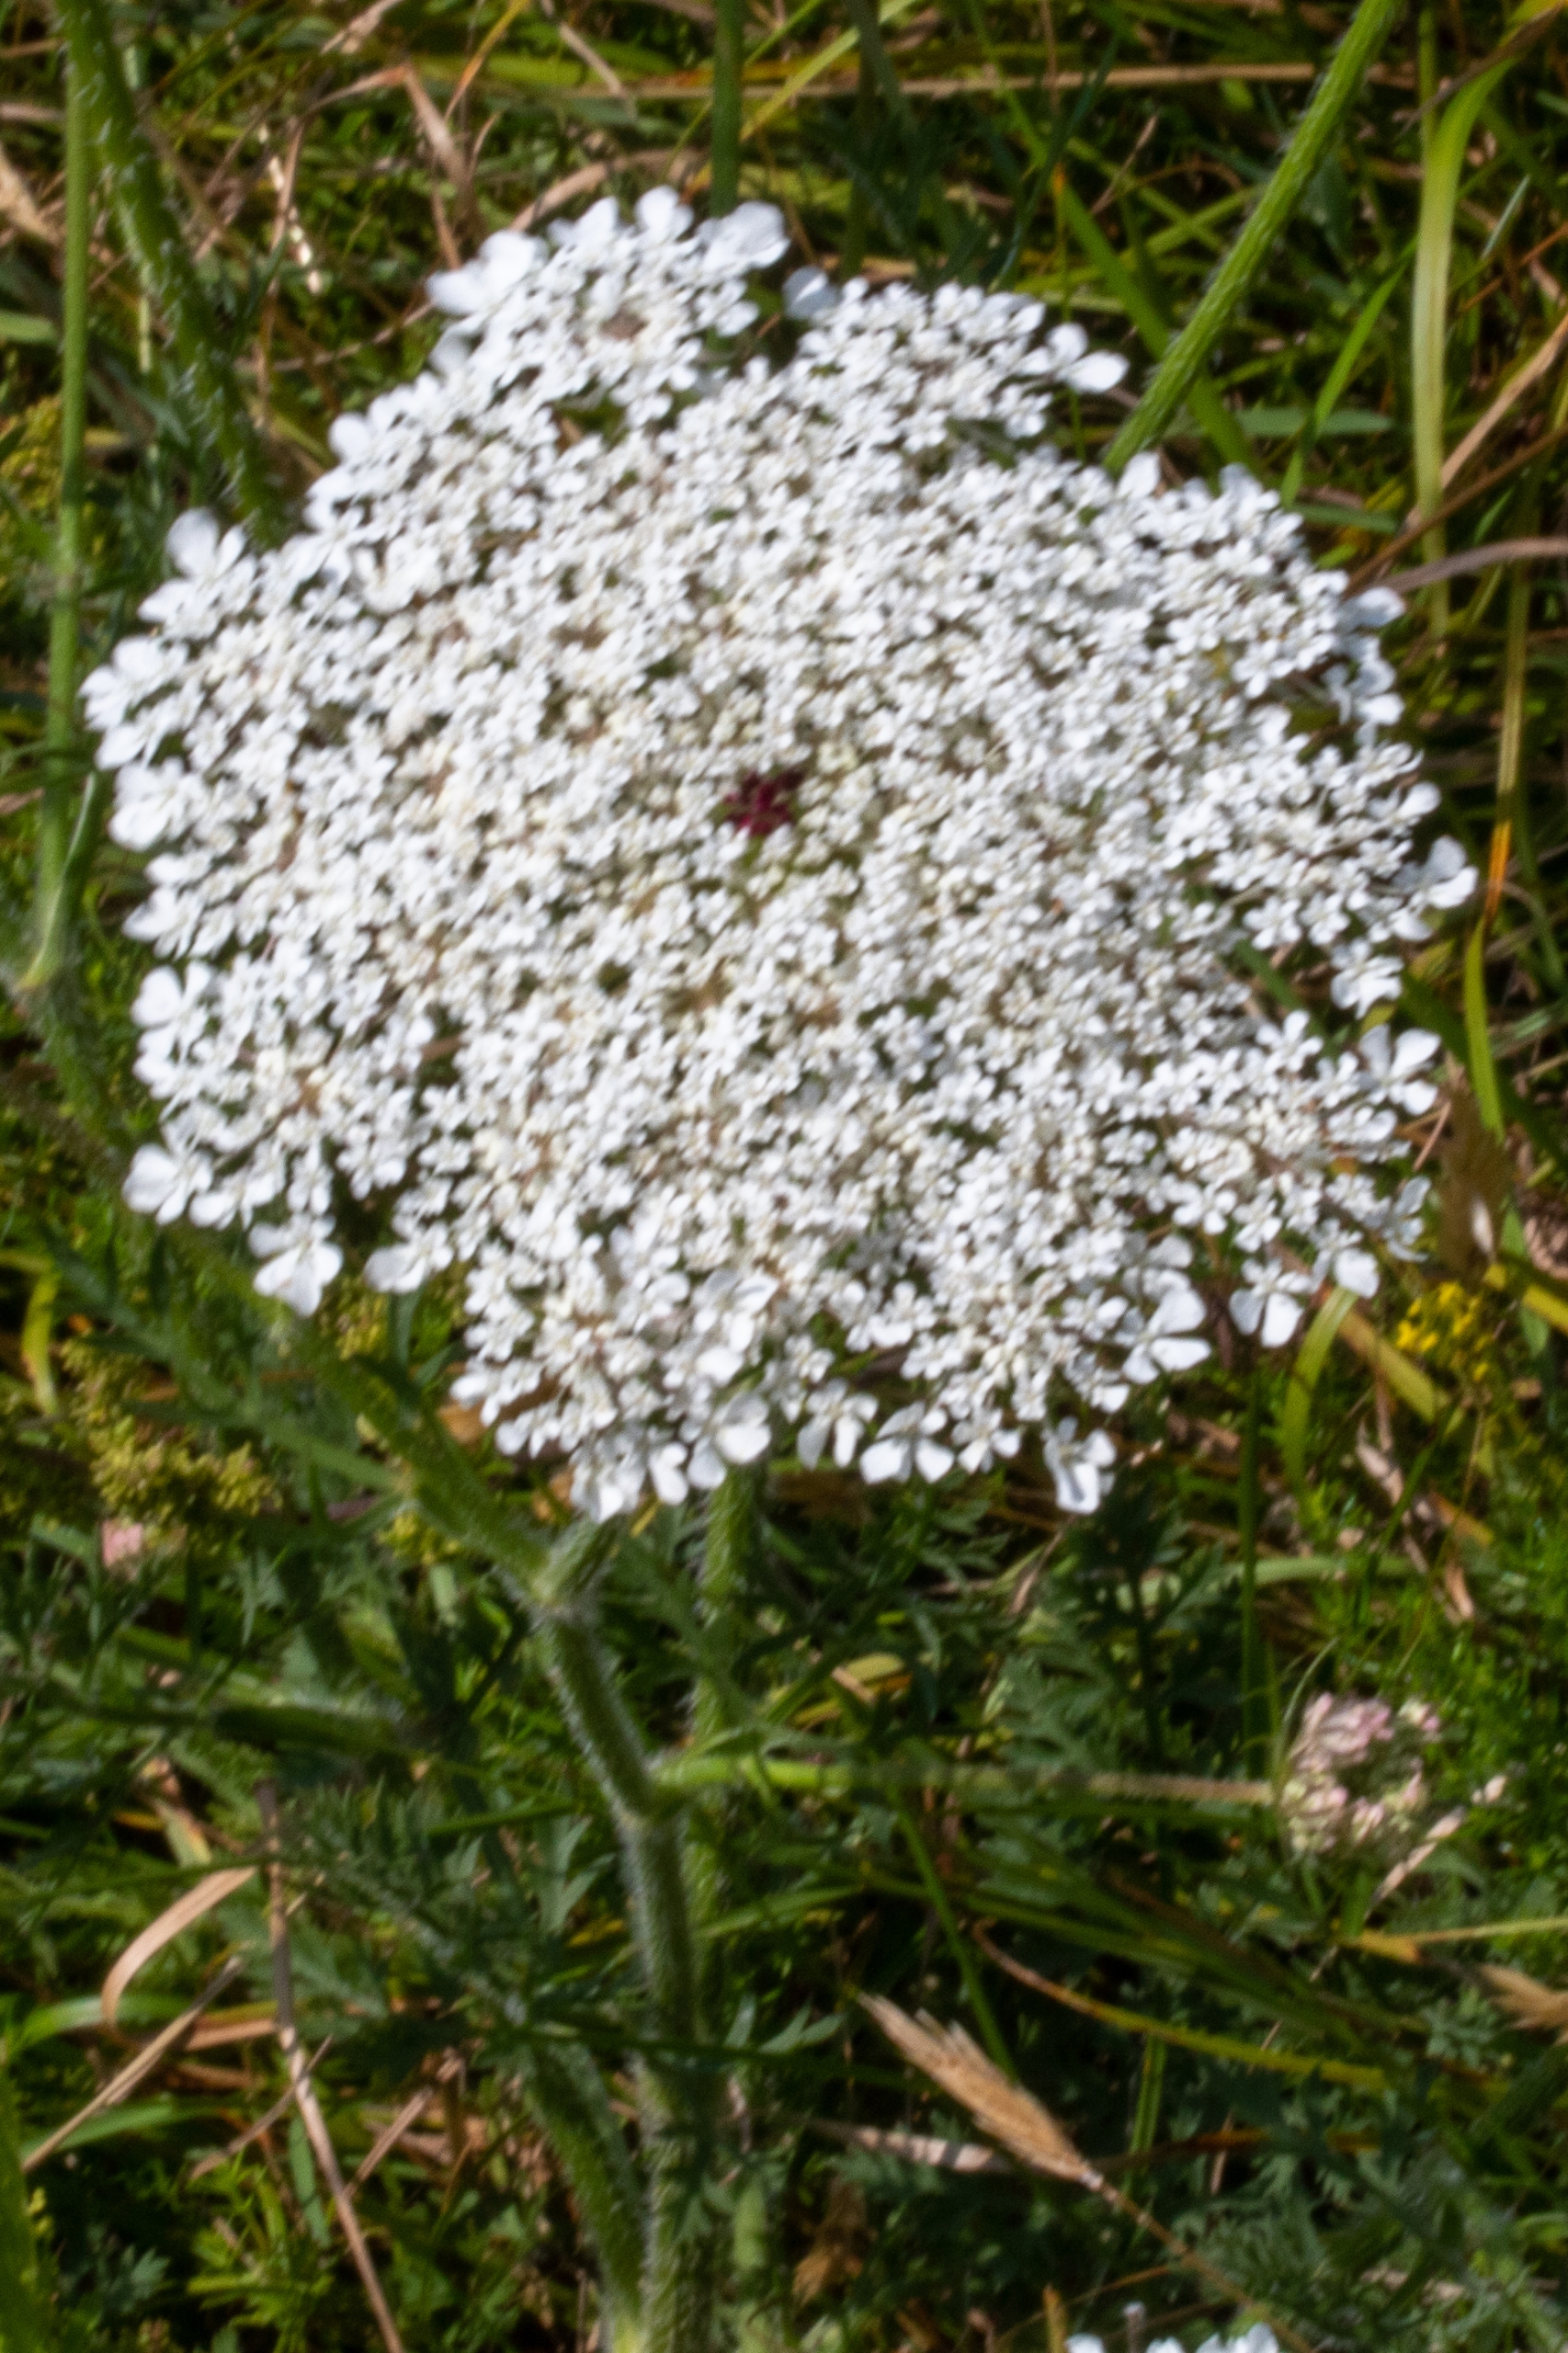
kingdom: Plantae
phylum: Tracheophyta
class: Magnoliopsida
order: Apiales
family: Apiaceae
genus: Daucus
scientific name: Daucus carota
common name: Gulerod
